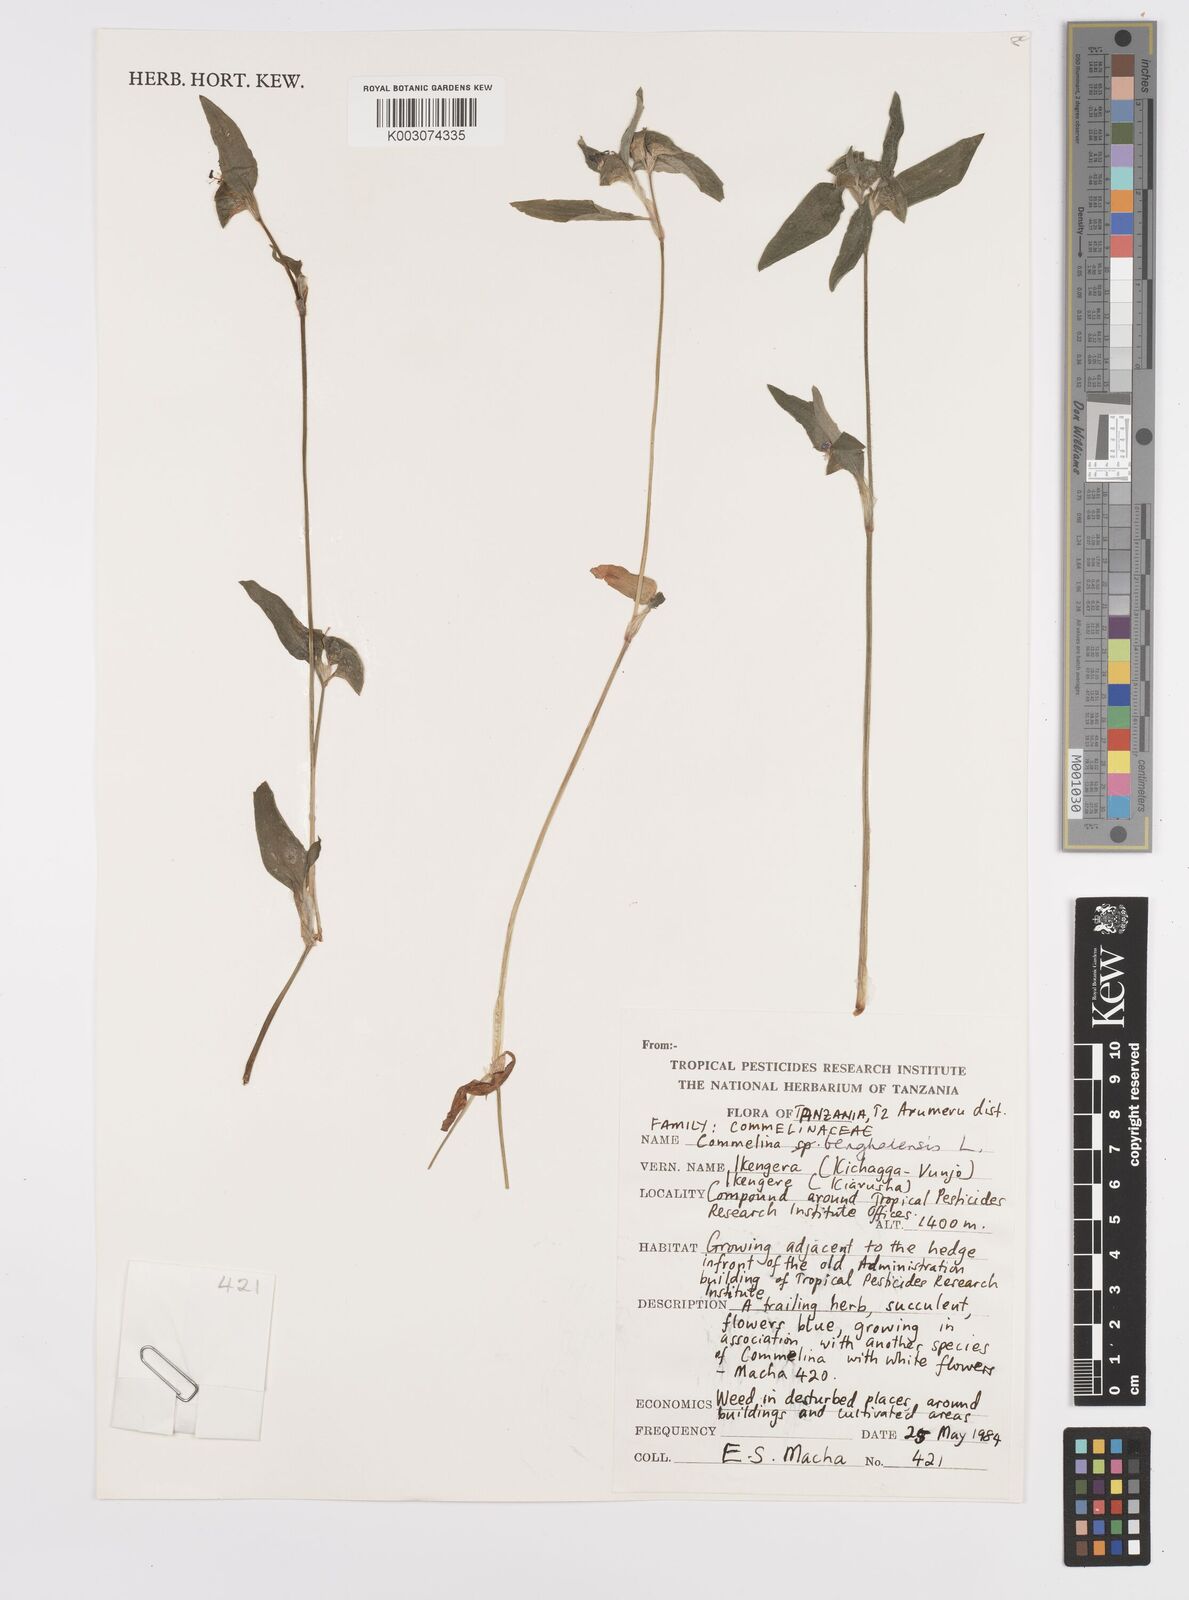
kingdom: Plantae
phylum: Tracheophyta
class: Liliopsida
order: Commelinales
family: Commelinaceae
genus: Commelina
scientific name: Commelina benghalensis
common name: Jio
